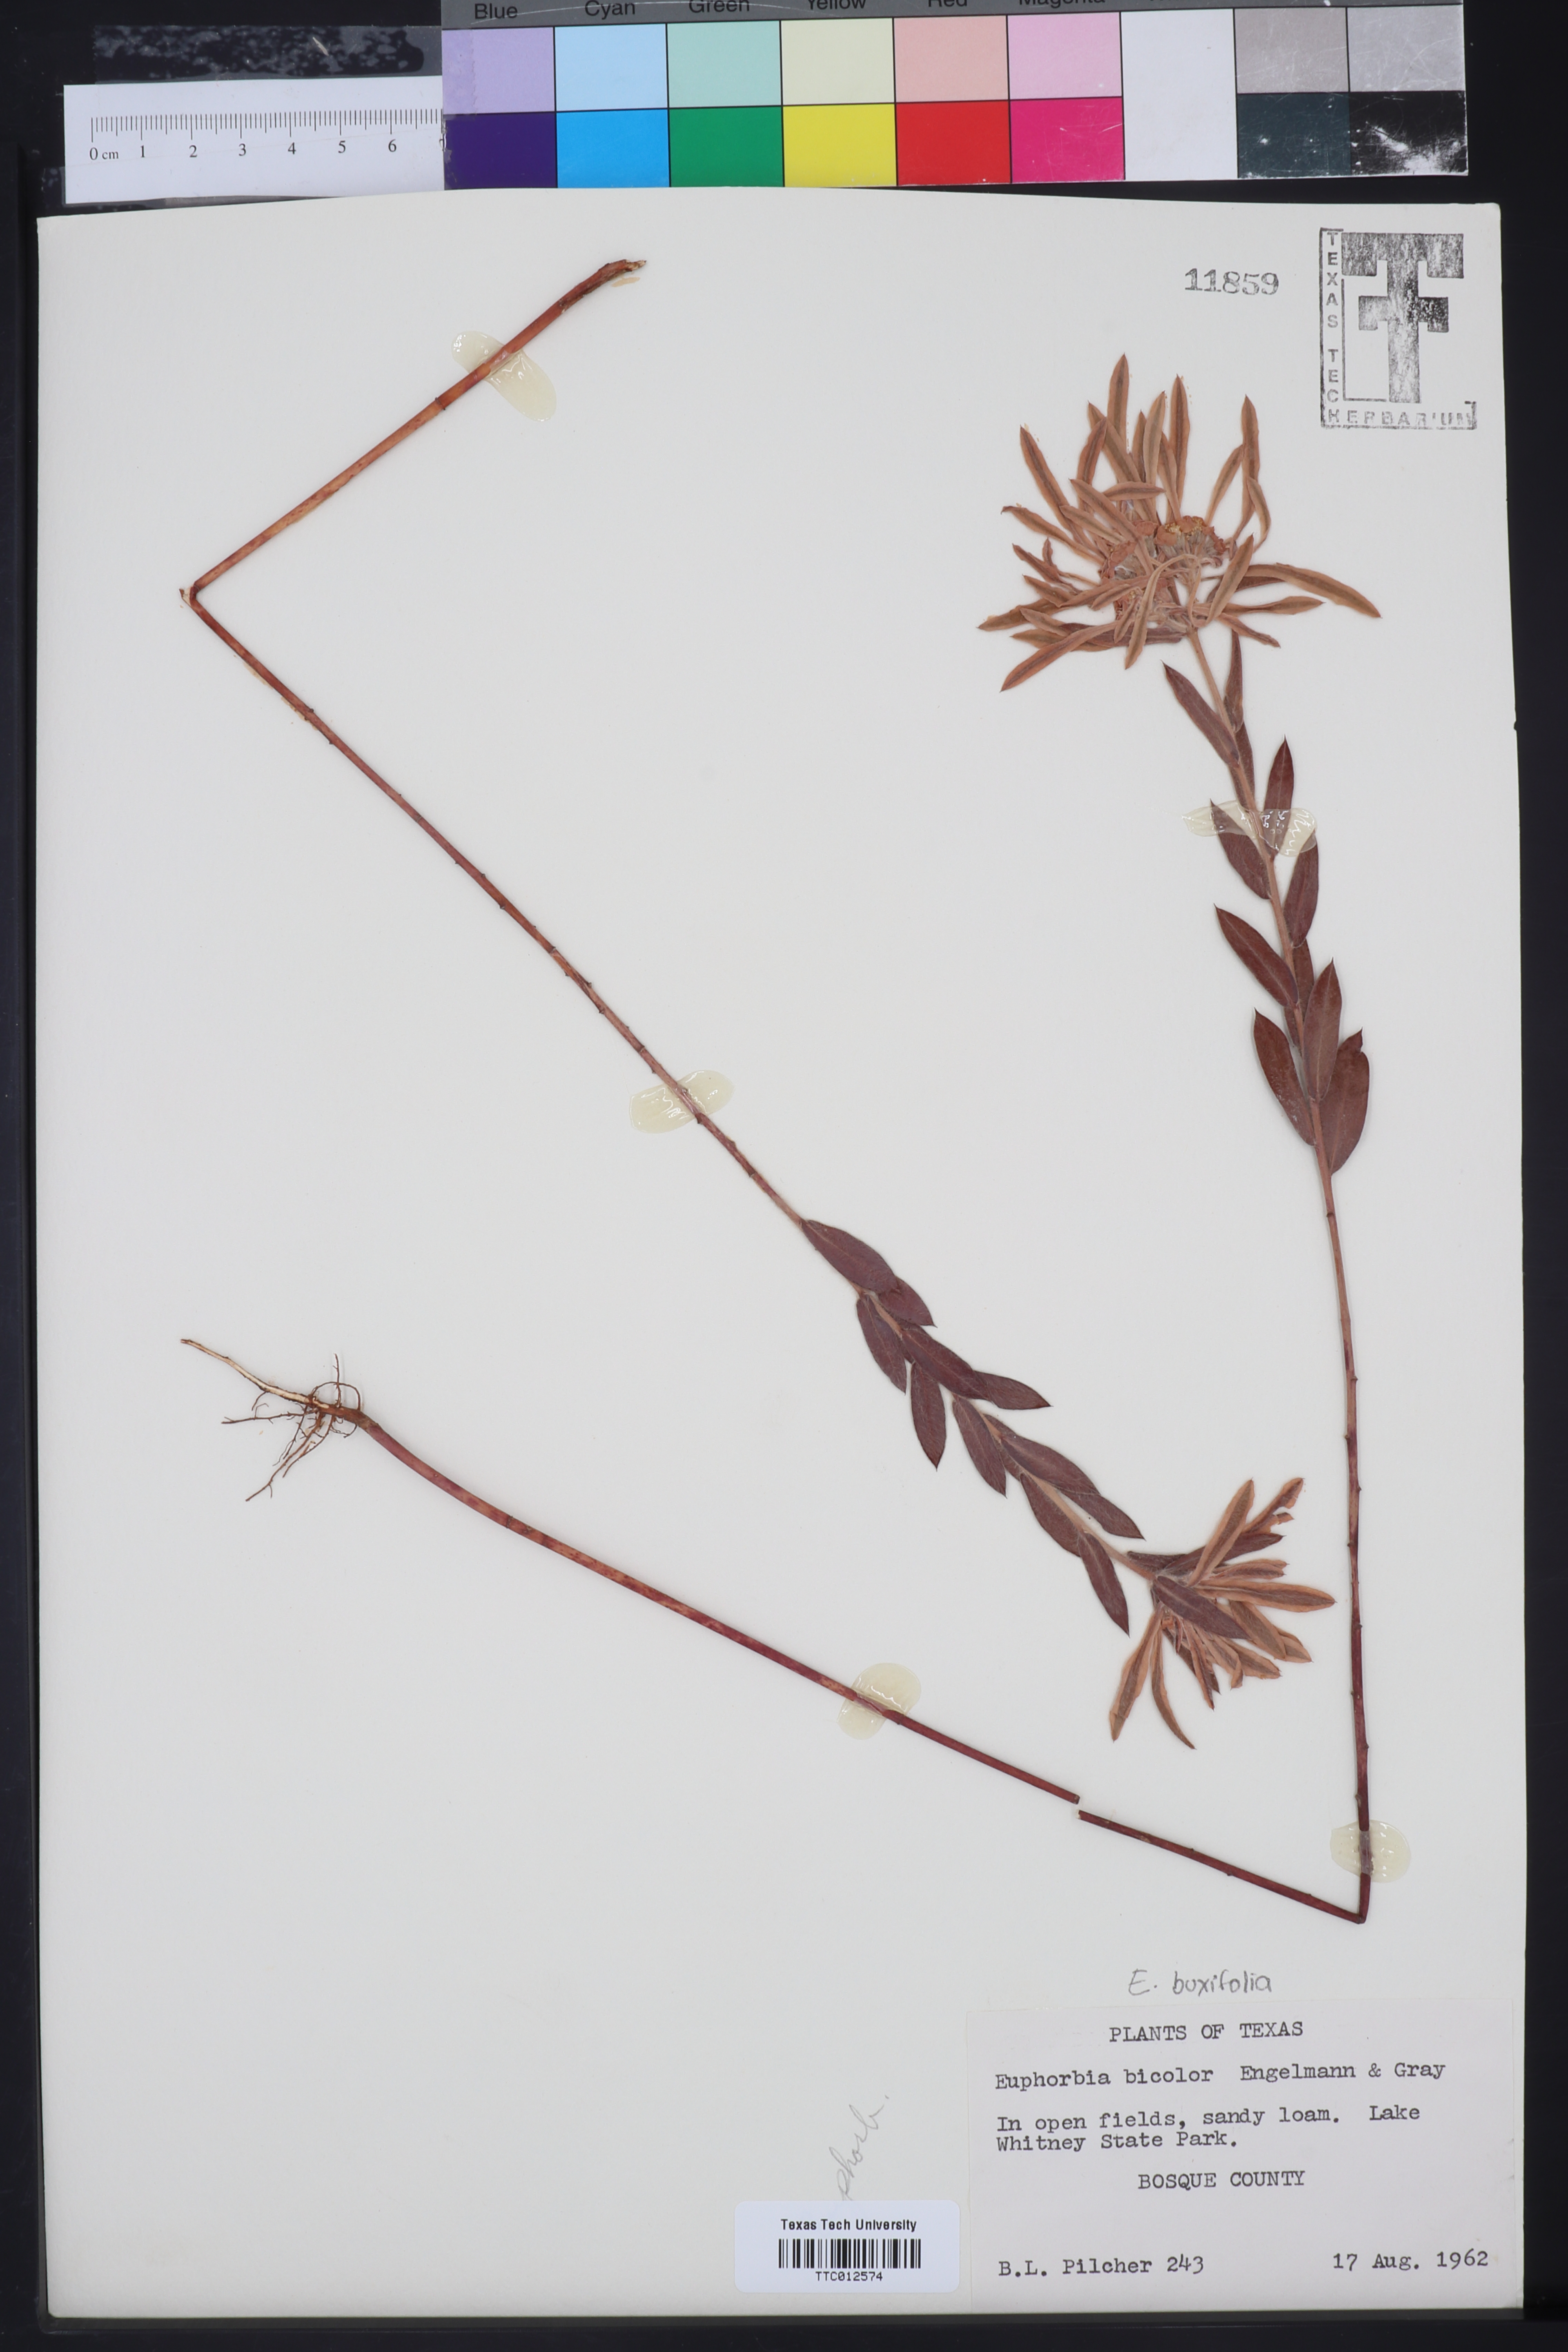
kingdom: Plantae
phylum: Tracheophyta
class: Magnoliopsida
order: Malpighiales
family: Euphorbiaceae
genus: Euphorbia
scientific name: Euphorbia bicolor
